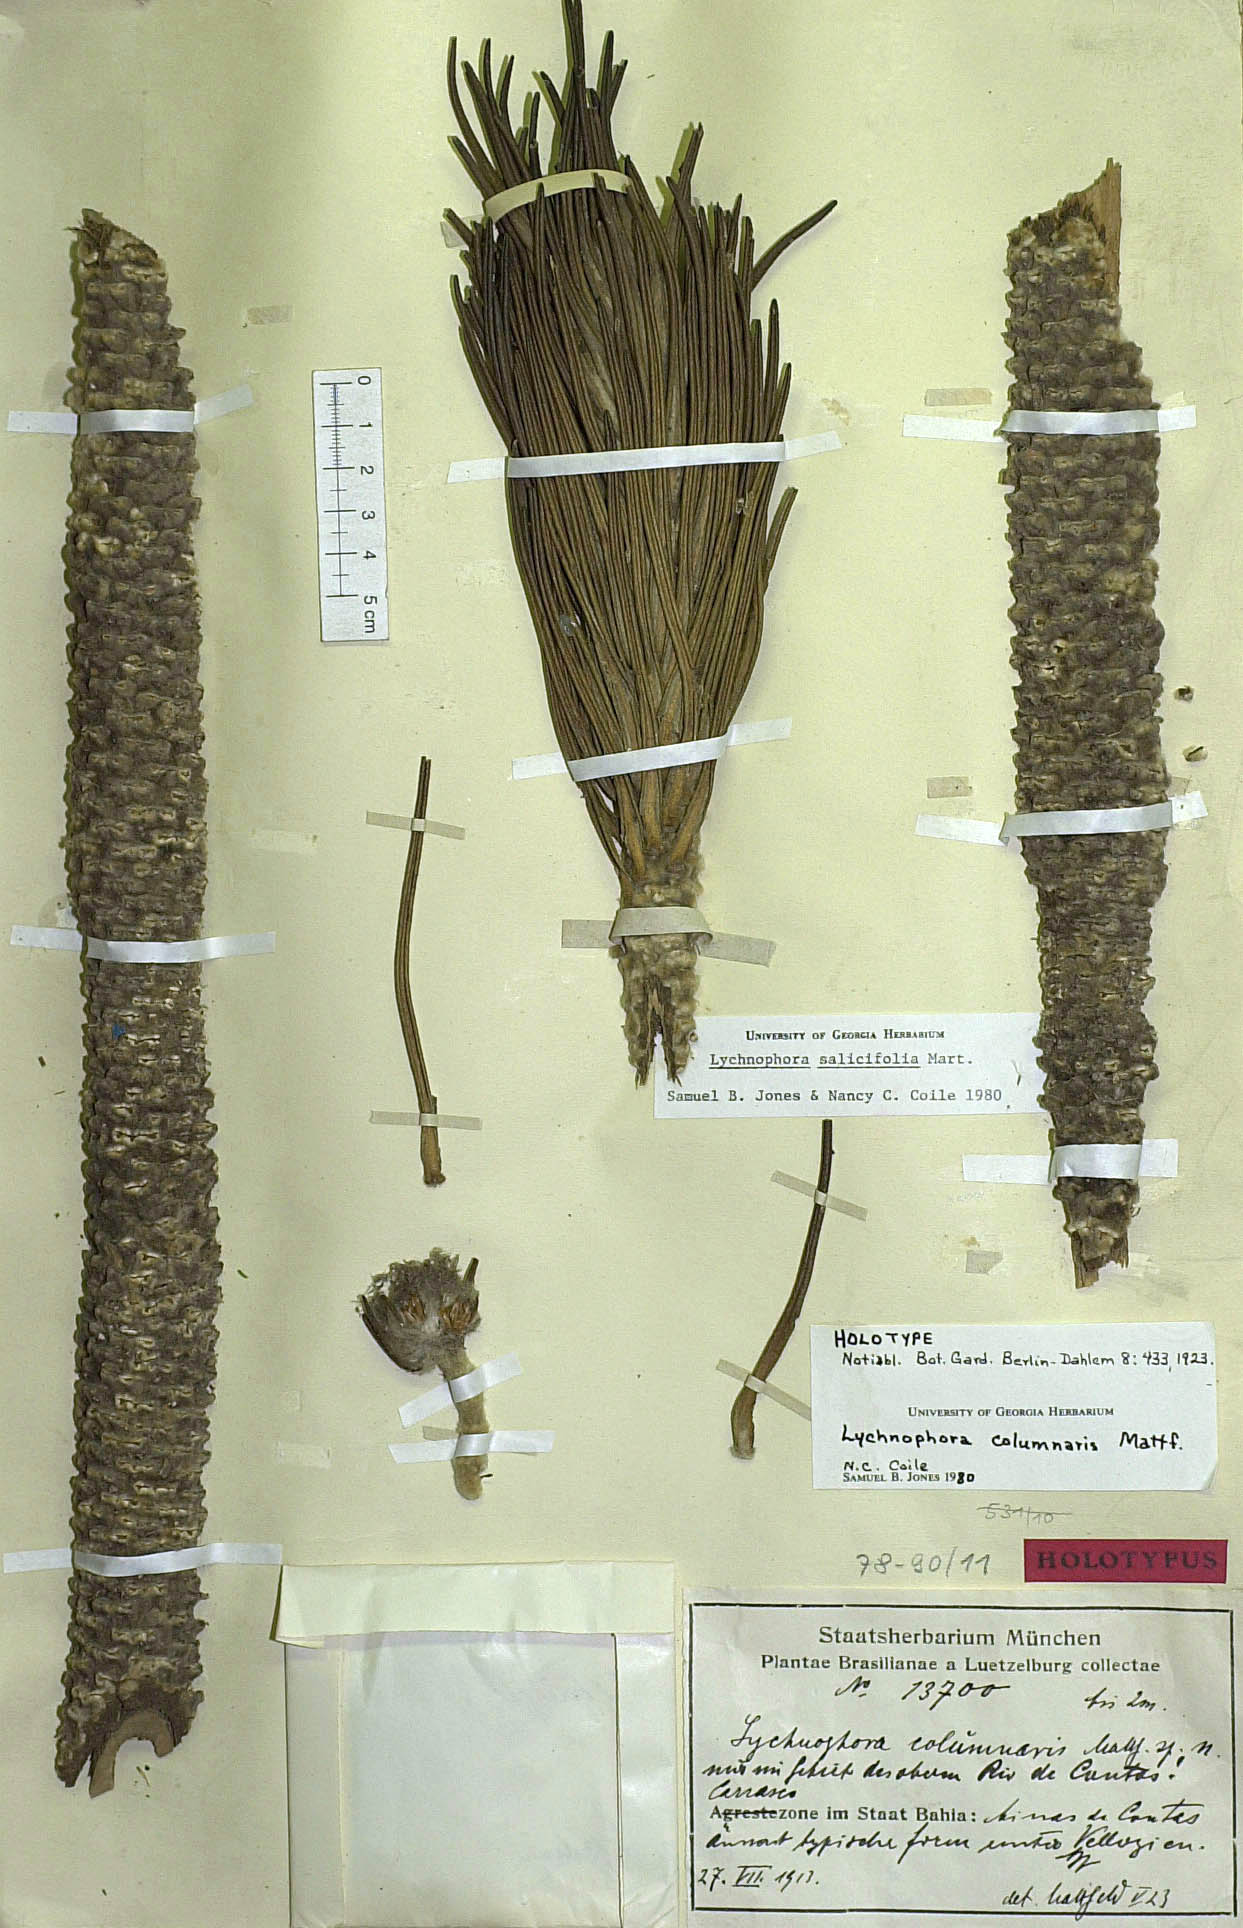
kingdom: Plantae
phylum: Tracheophyta
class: Magnoliopsida
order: Asterales
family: Asteraceae
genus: Lychnophora
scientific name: Lychnophora salicifolia
